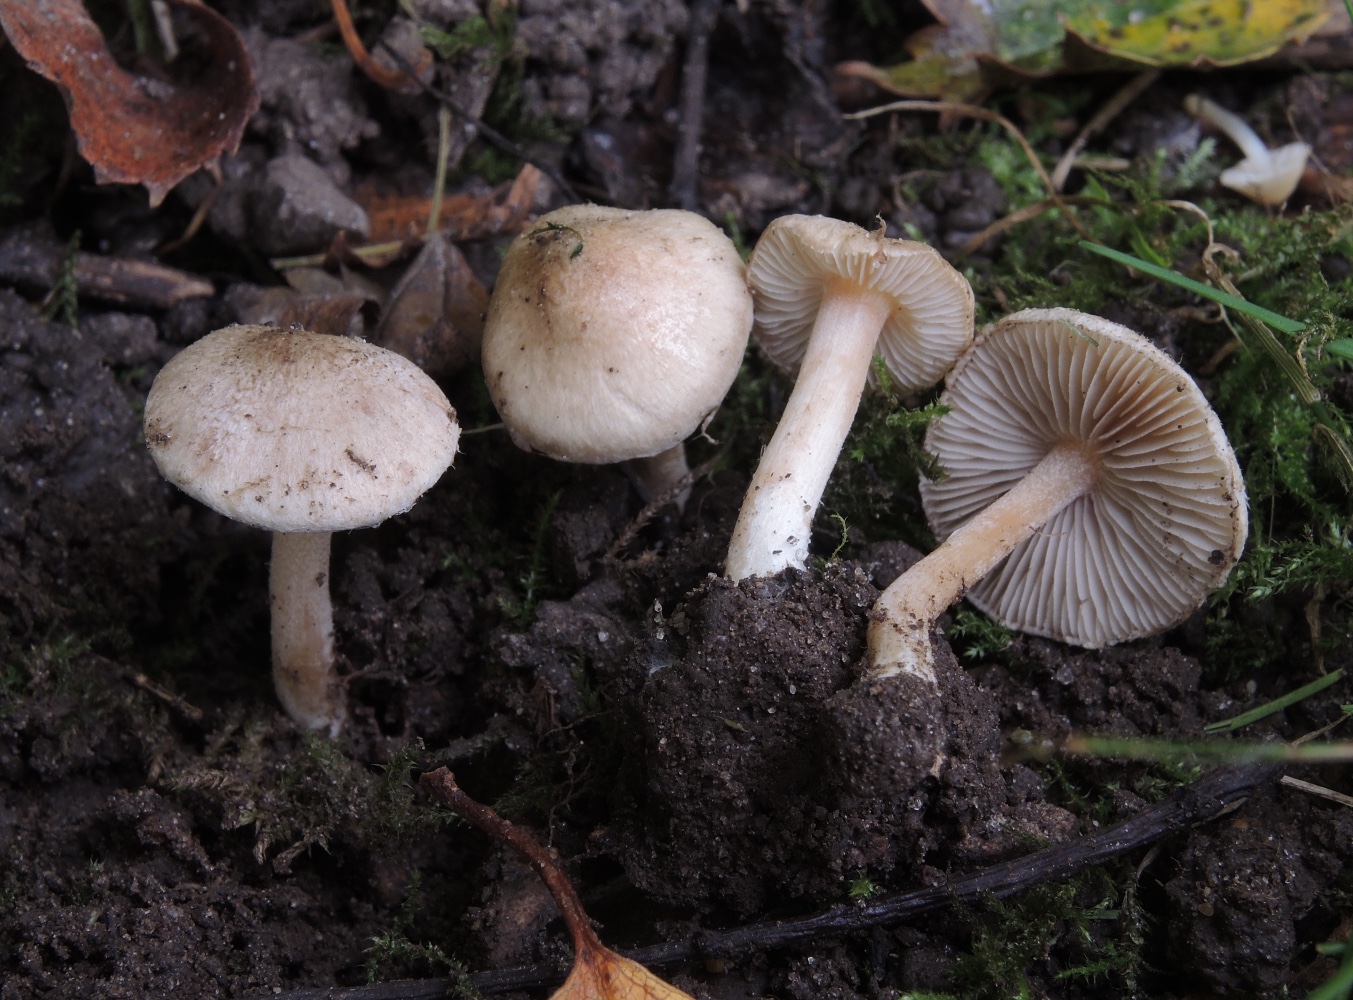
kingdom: Fungi
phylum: Basidiomycota
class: Agaricomycetes
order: Agaricales
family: Inocybaceae
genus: Inocybe
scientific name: Inocybe sindonia
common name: bleg trævlhat
